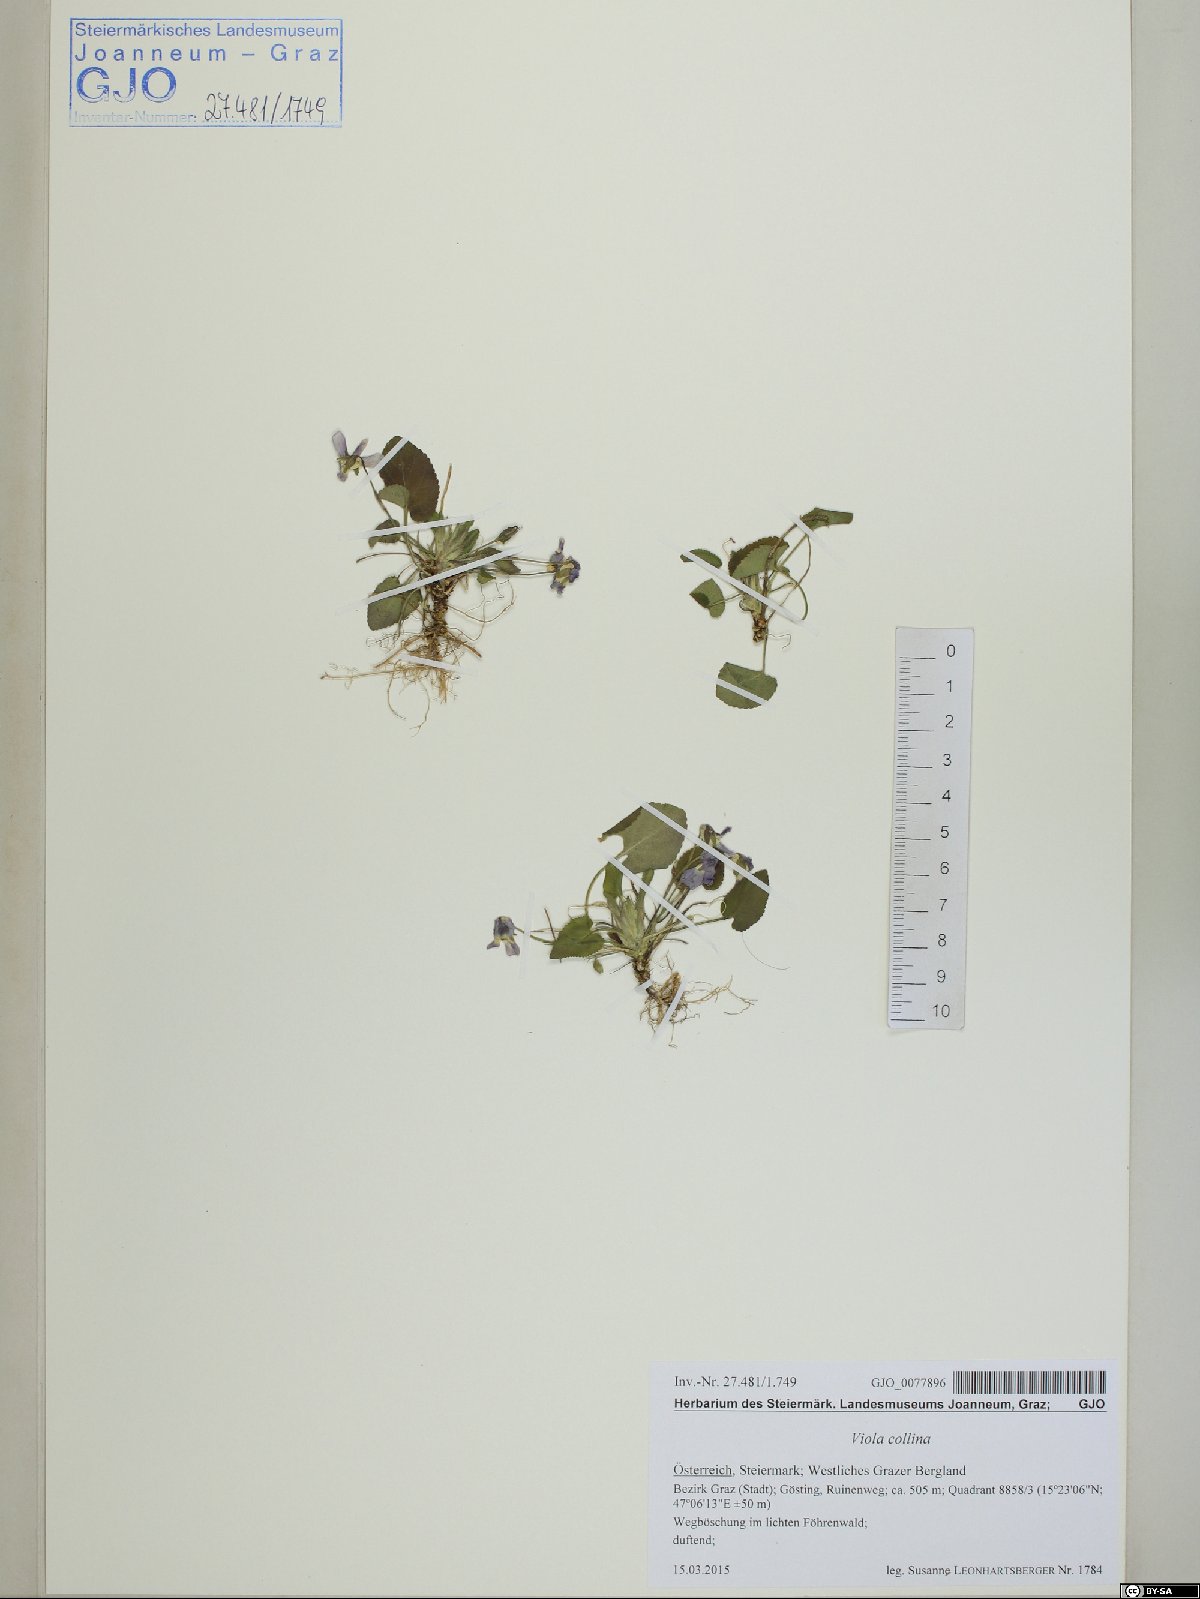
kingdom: Plantae
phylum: Tracheophyta
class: Magnoliopsida
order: Malpighiales
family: Violaceae
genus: Viola
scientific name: Viola collina
